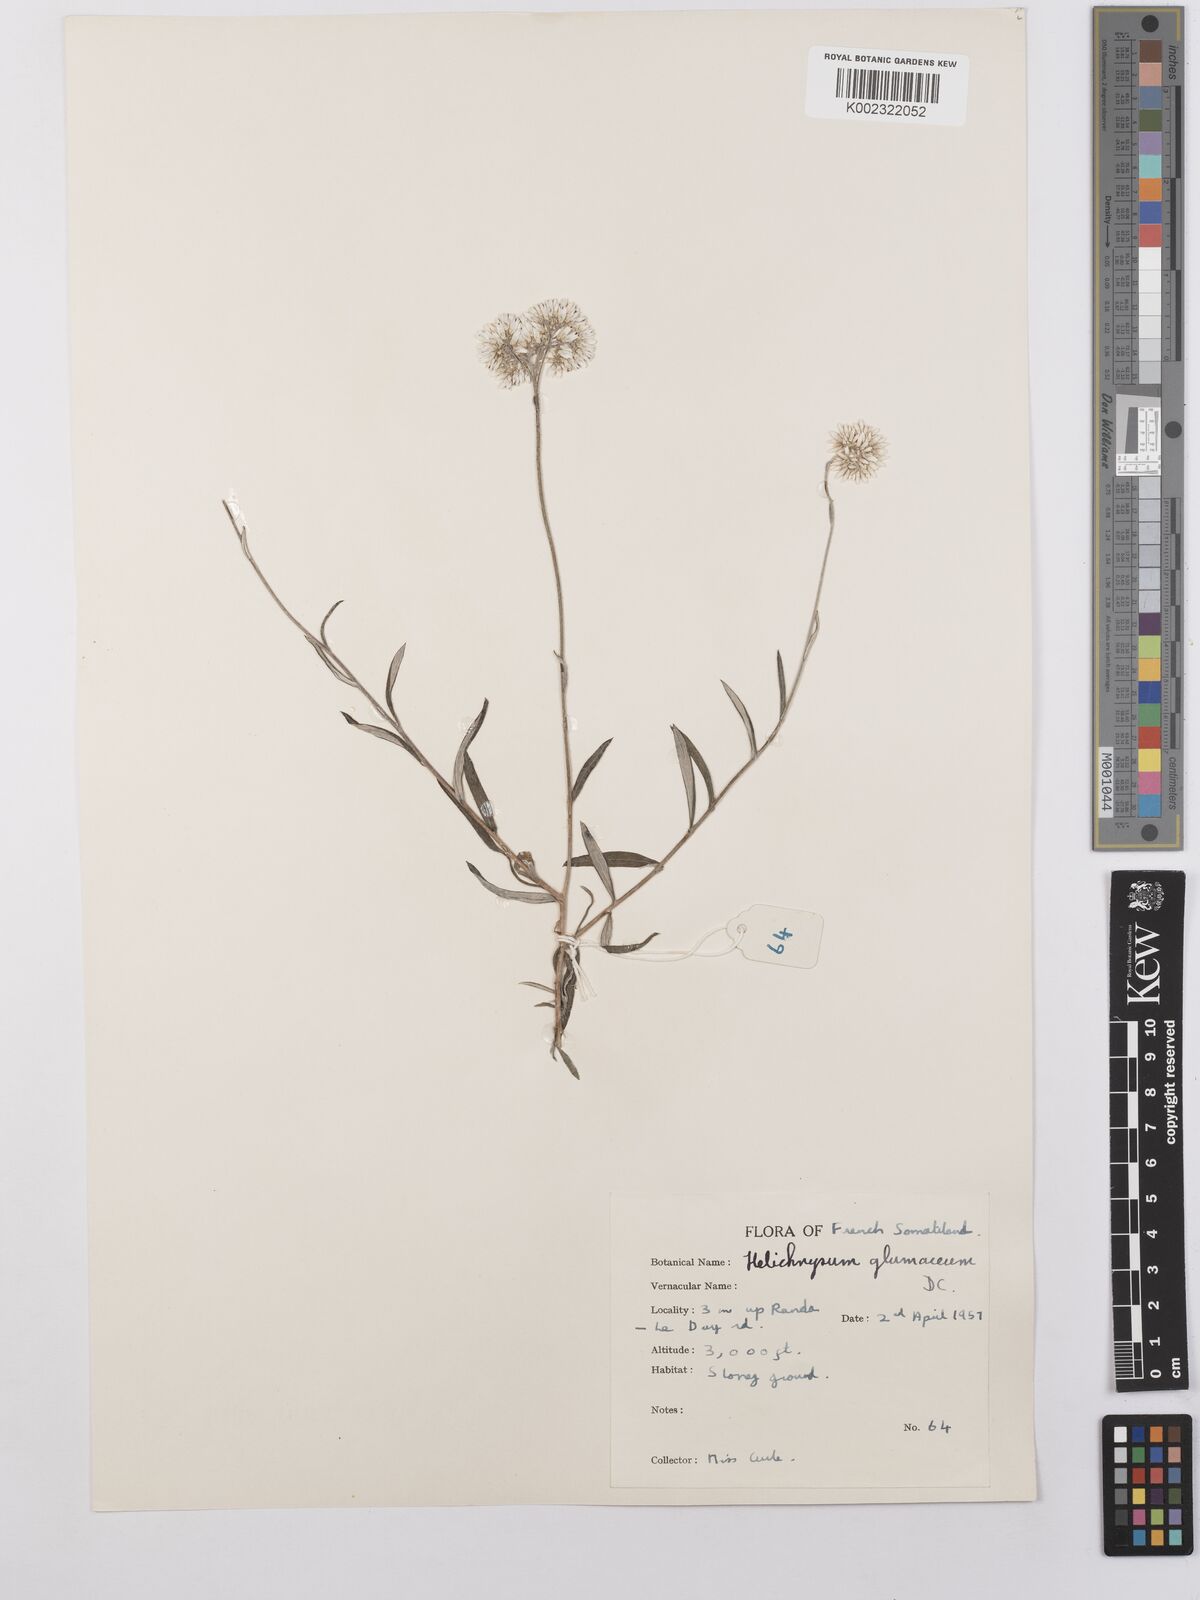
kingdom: Plantae
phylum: Tracheophyta
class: Magnoliopsida
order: Asterales
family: Asteraceae
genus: Helichrysum
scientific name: Helichrysum glumaceum
